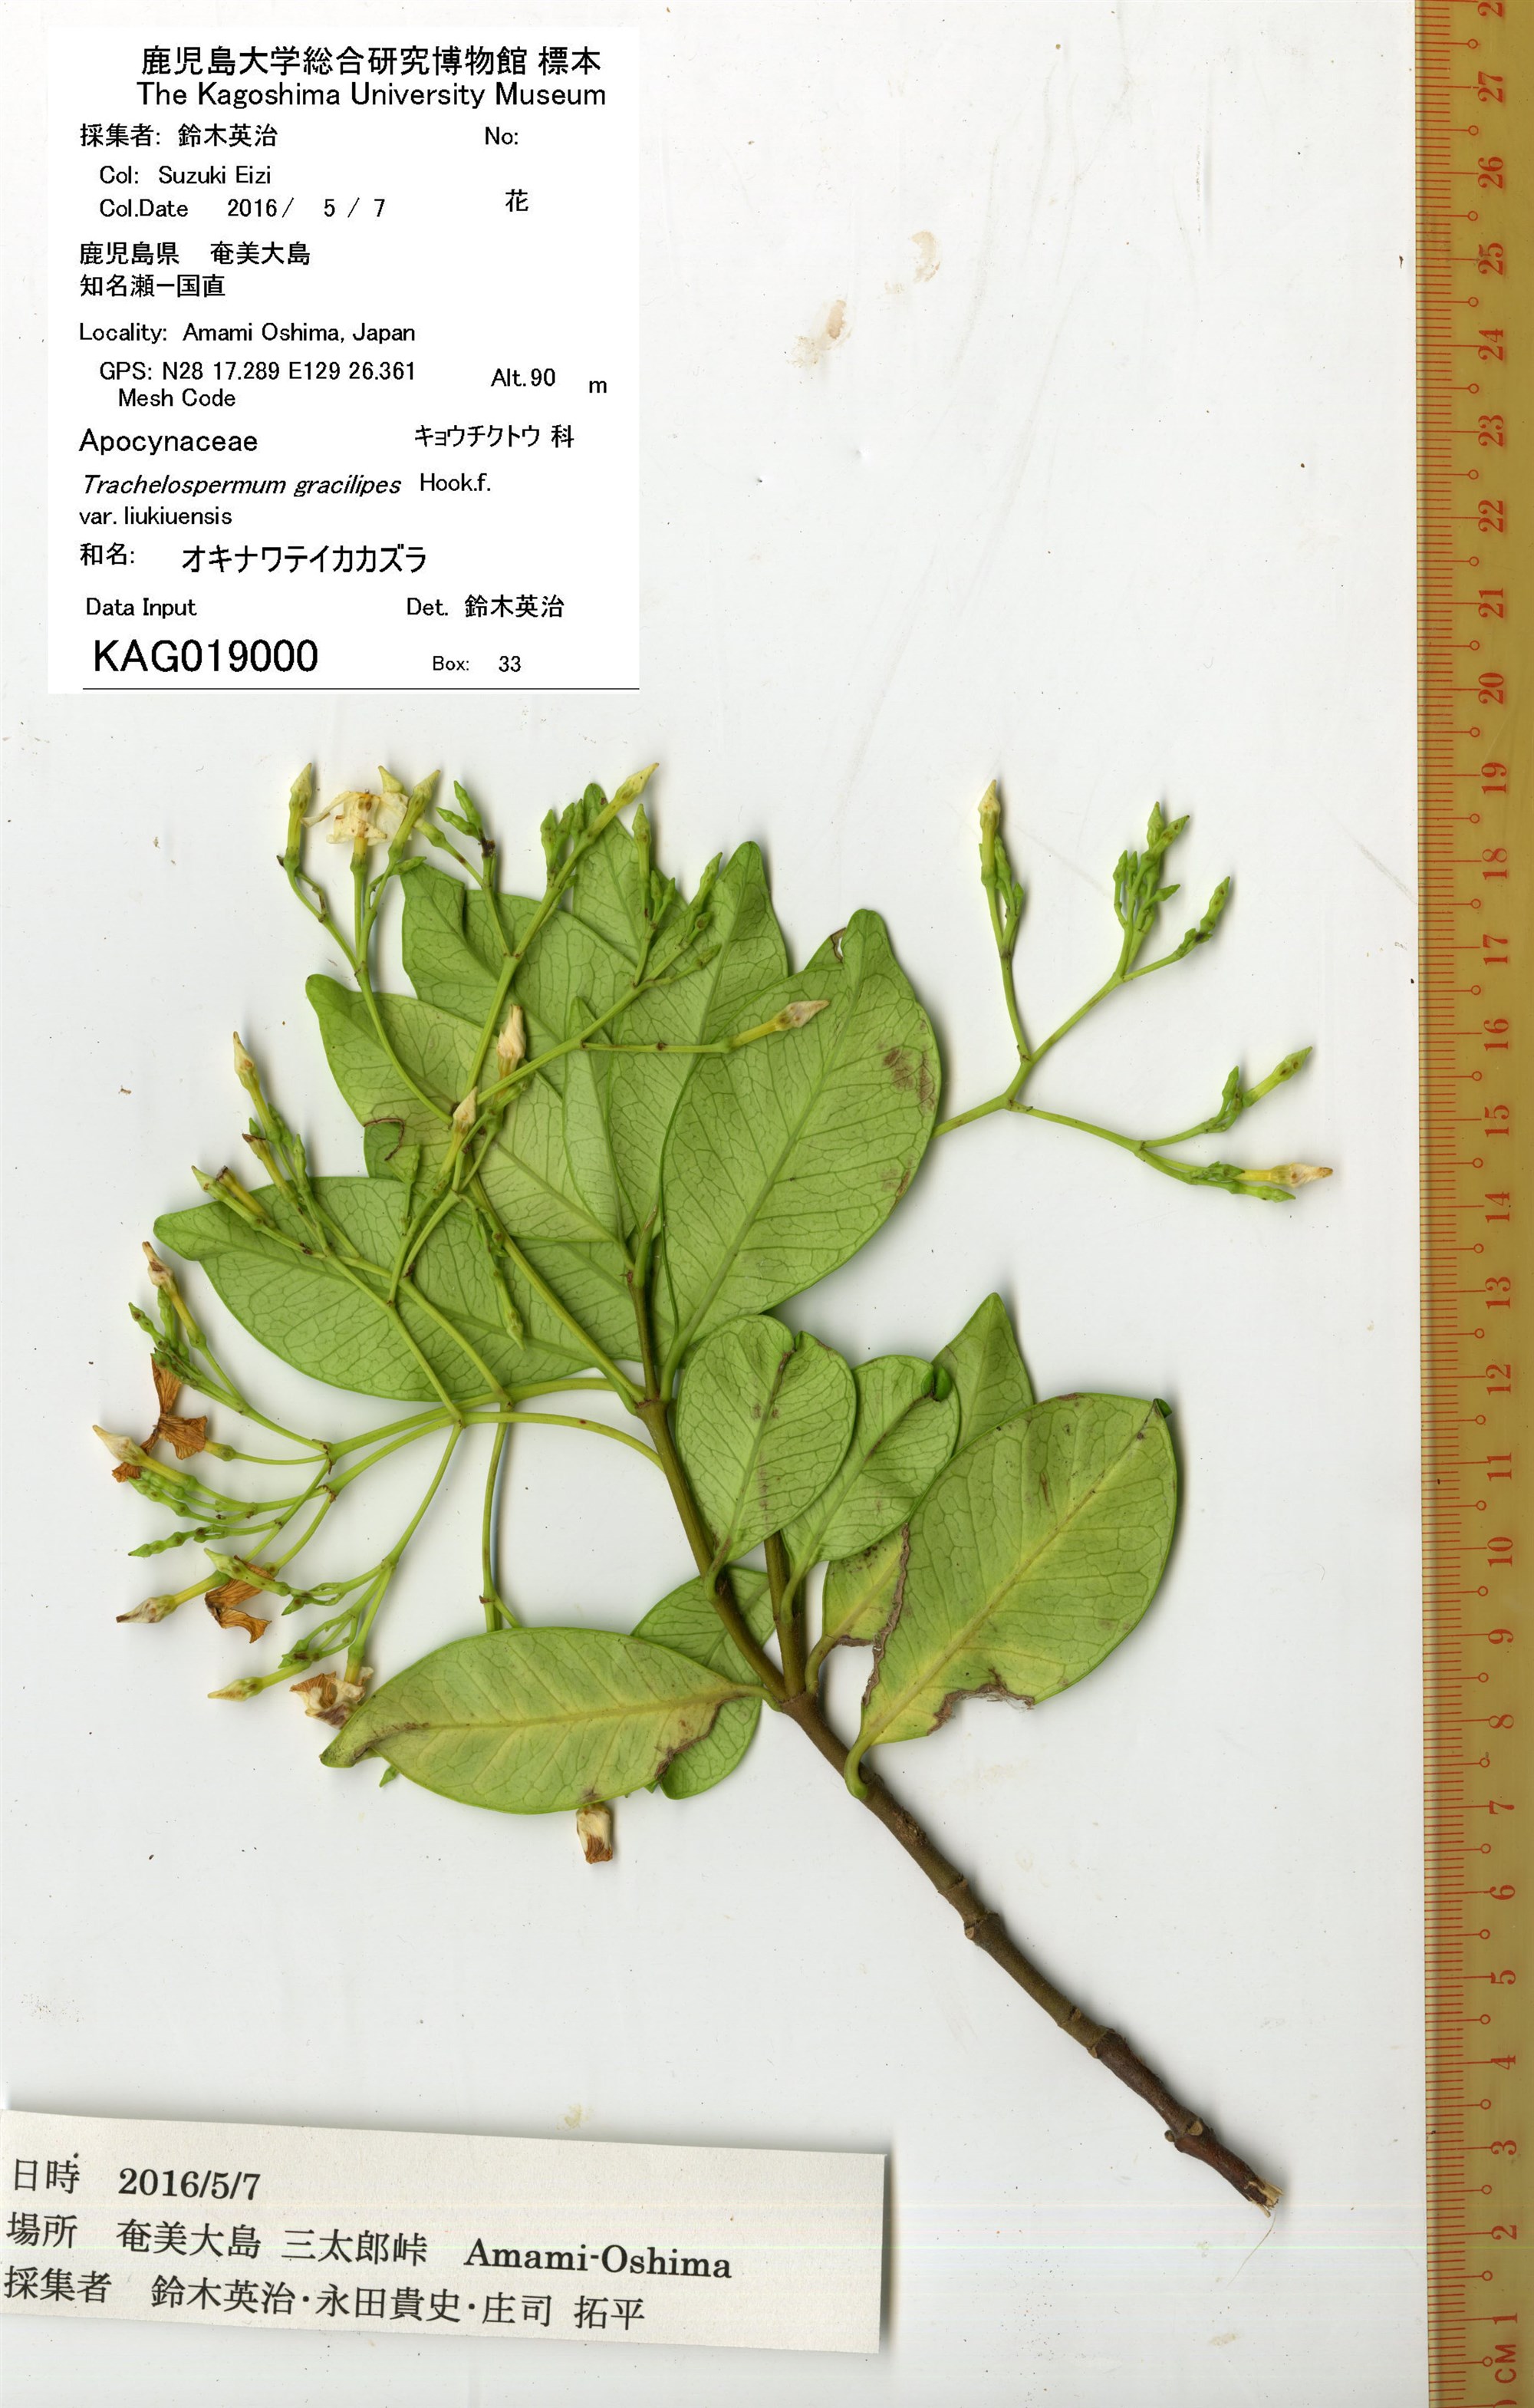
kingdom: Plantae
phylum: Tracheophyta
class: Magnoliopsida
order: Gentianales
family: Apocynaceae
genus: Trachelospermum
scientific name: Trachelospermum gracilipes
